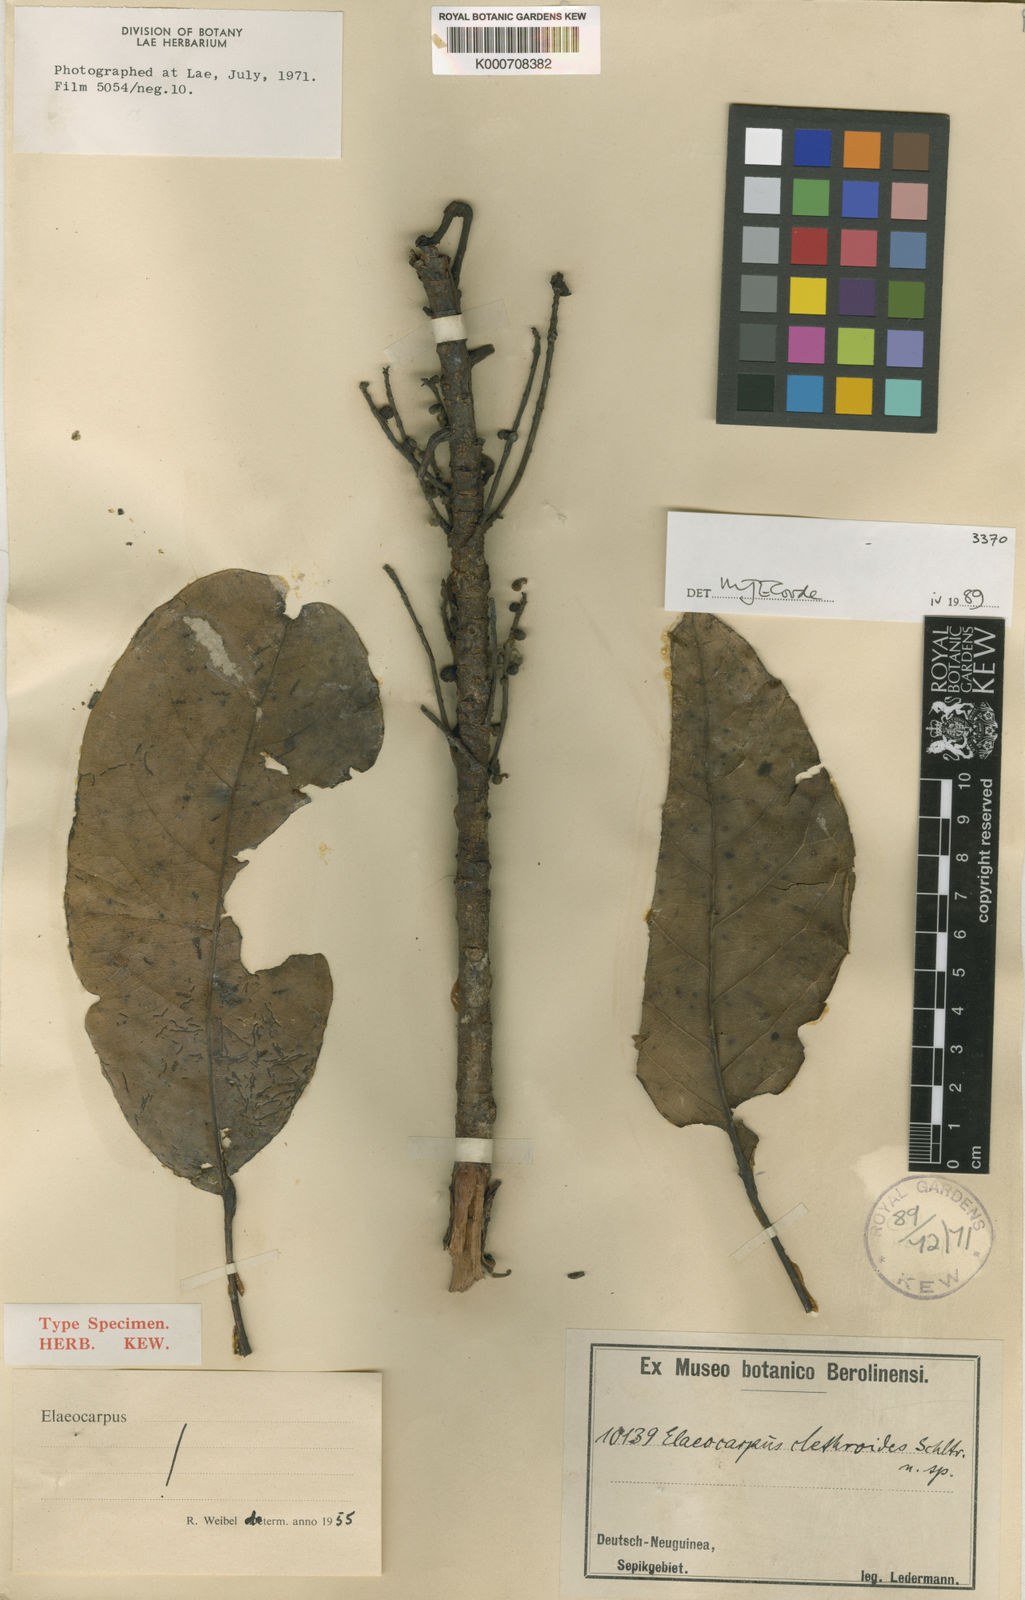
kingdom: Plantae
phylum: Tracheophyta
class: Magnoliopsida
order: Oxalidales
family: Elaeocarpaceae
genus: Elaeocarpus
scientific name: Elaeocarpus clethroides
